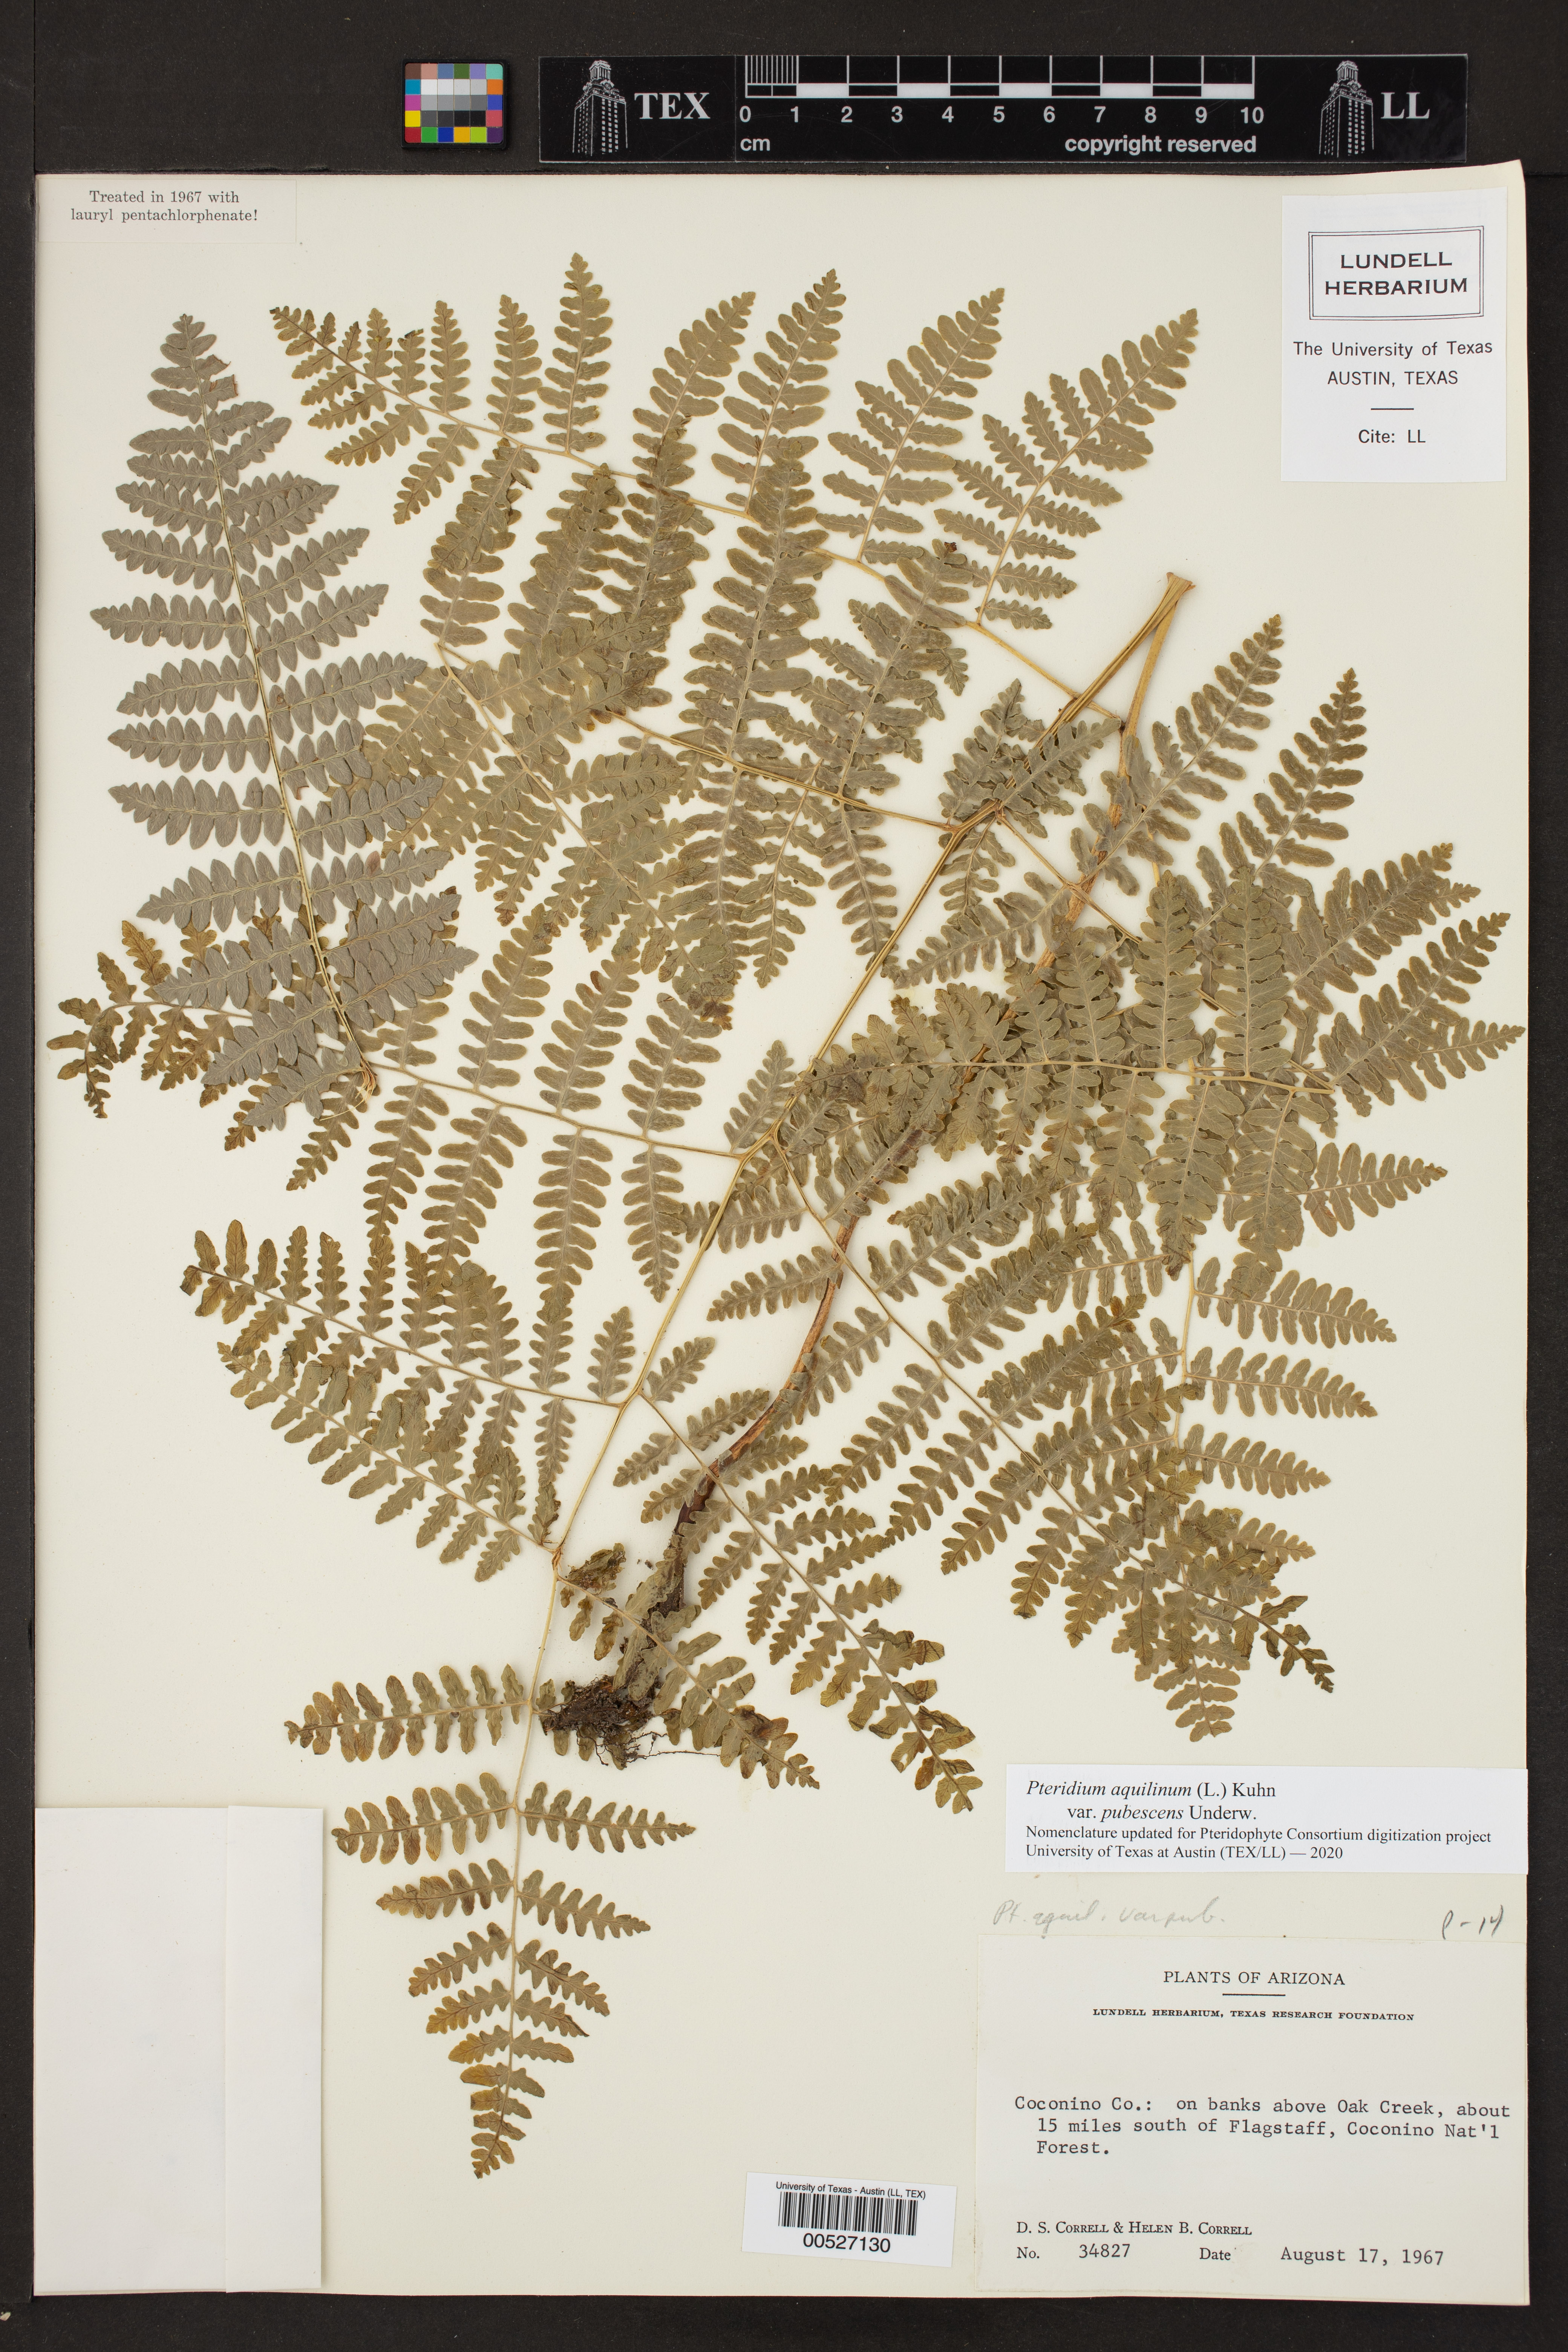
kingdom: Plantae
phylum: Tracheophyta
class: Polypodiopsida
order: Polypodiales
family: Dennstaedtiaceae
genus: Pteridium
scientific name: Pteridium aquilinum
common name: Bracken
